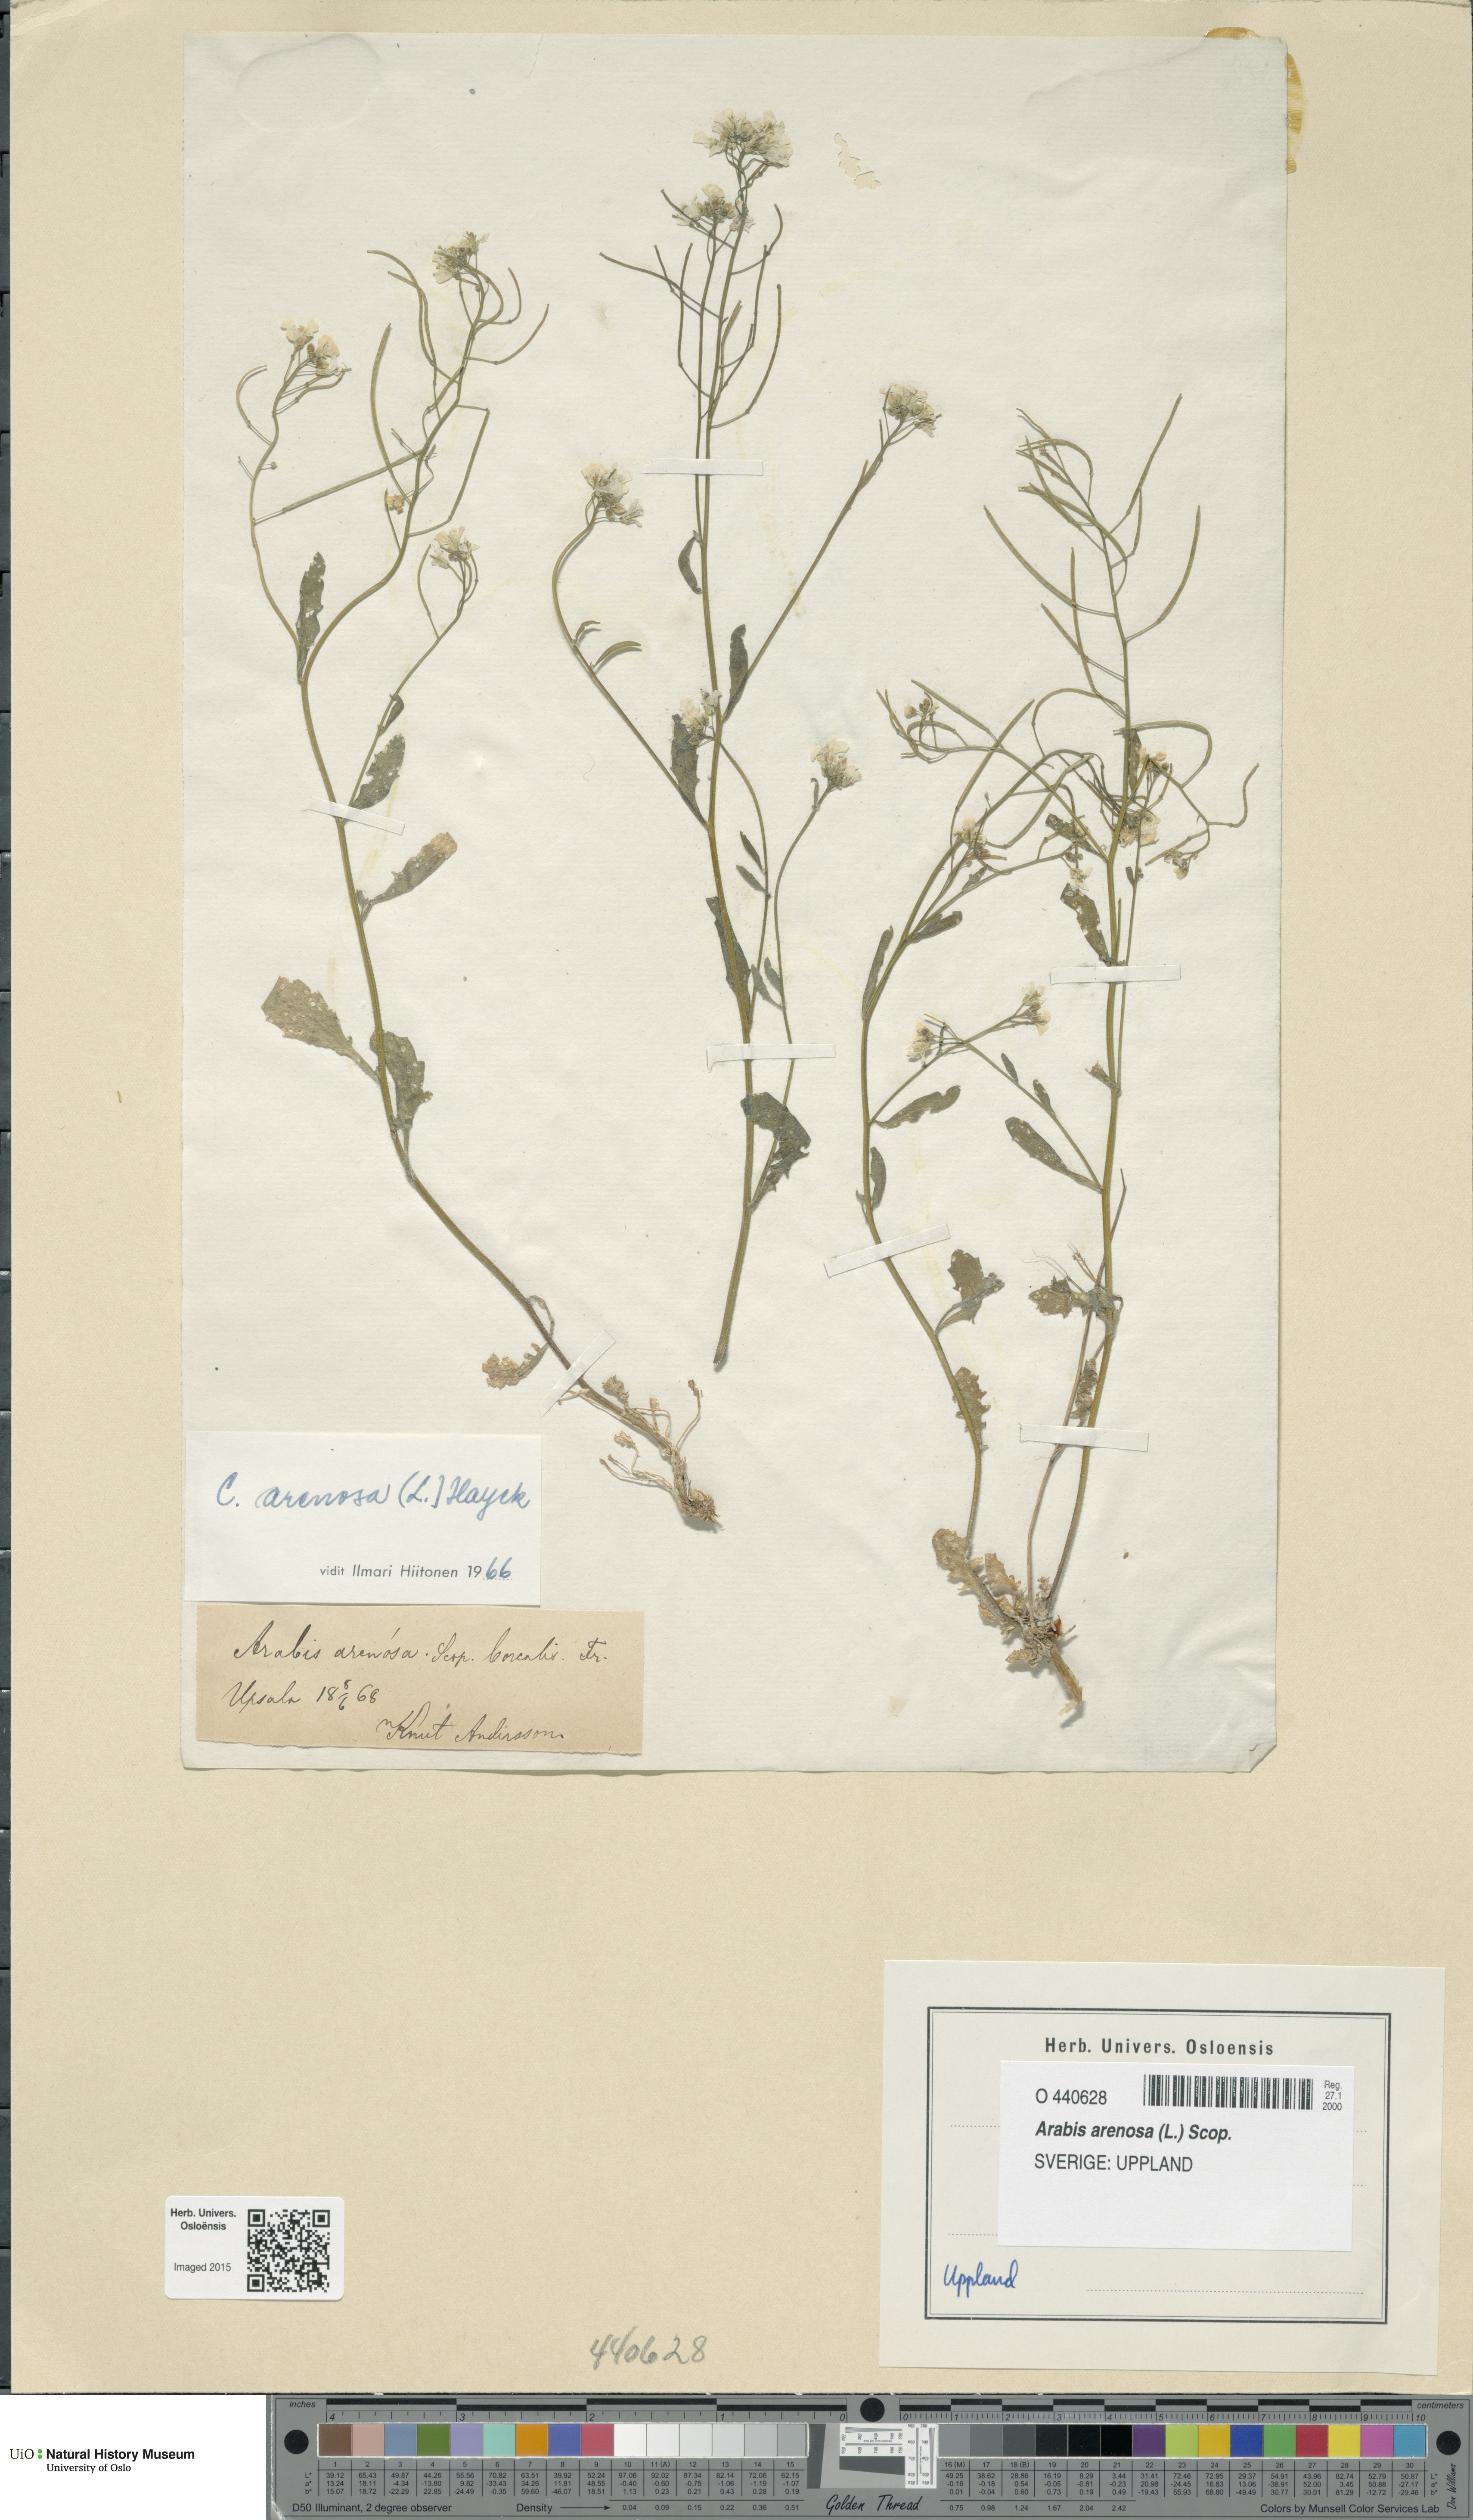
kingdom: Plantae
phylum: Tracheophyta
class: Magnoliopsida
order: Brassicales
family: Brassicaceae
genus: Arabidopsis
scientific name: Arabidopsis arenosa
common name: Sand rock-cress
